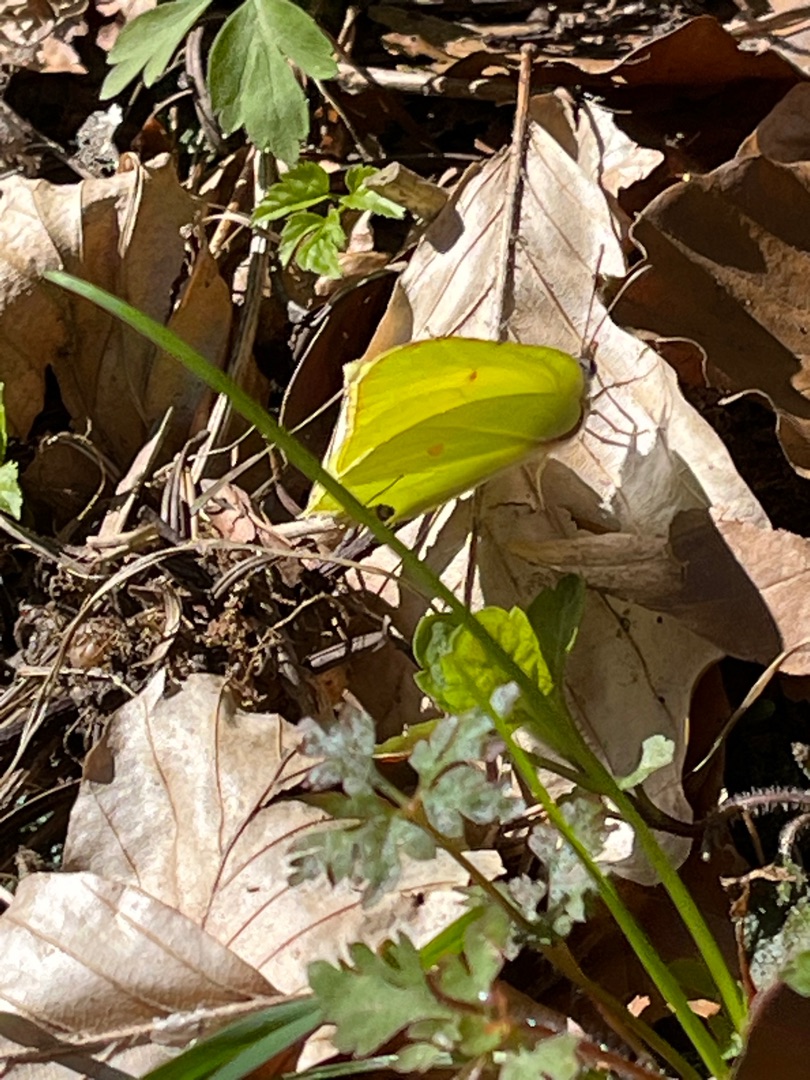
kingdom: Animalia
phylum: Arthropoda
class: Insecta
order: Lepidoptera
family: Pieridae
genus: Gonepteryx
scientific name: Gonepteryx rhamni
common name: Citronsommerfugl
